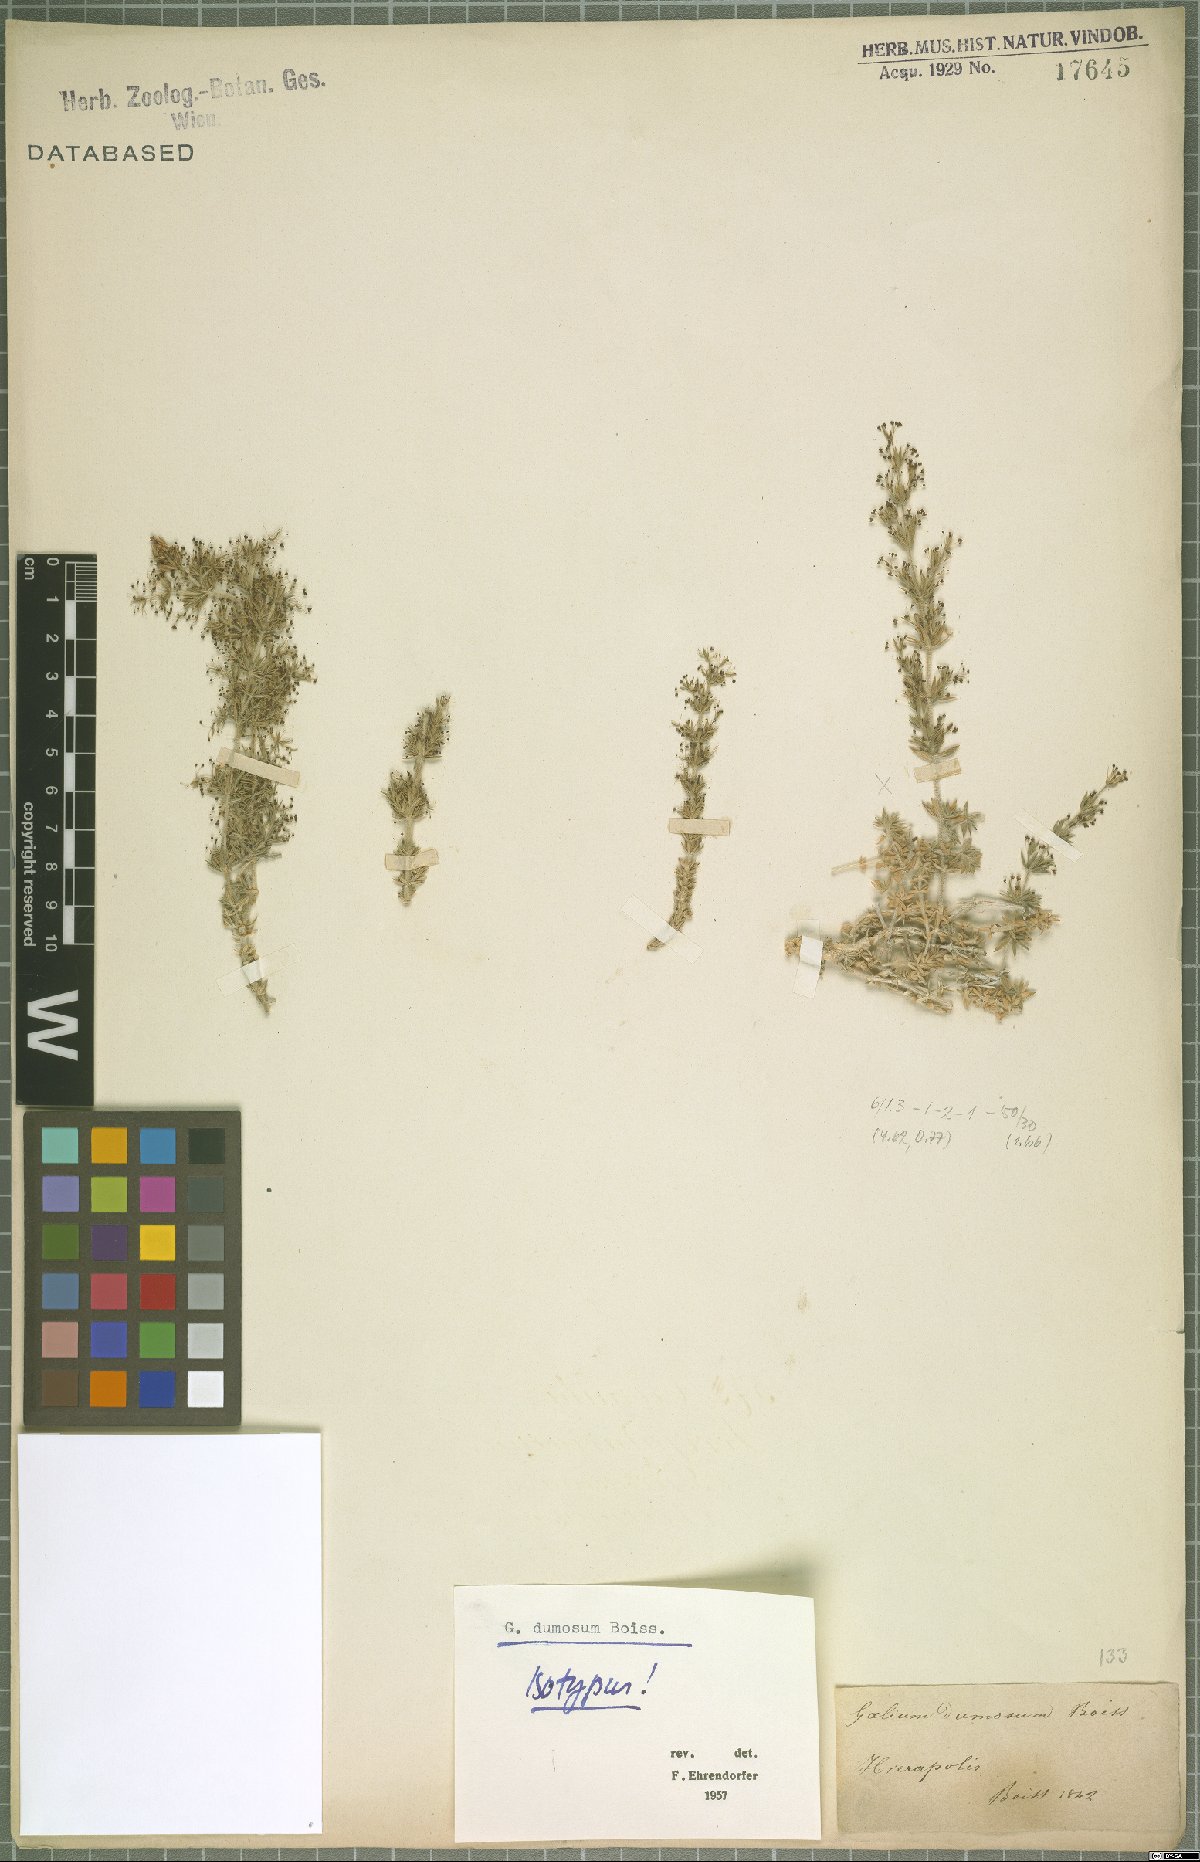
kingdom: Plantae
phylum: Tracheophyta
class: Magnoliopsida
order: Gentianales
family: Rubiaceae
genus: Galium
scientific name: Galium dumosum
